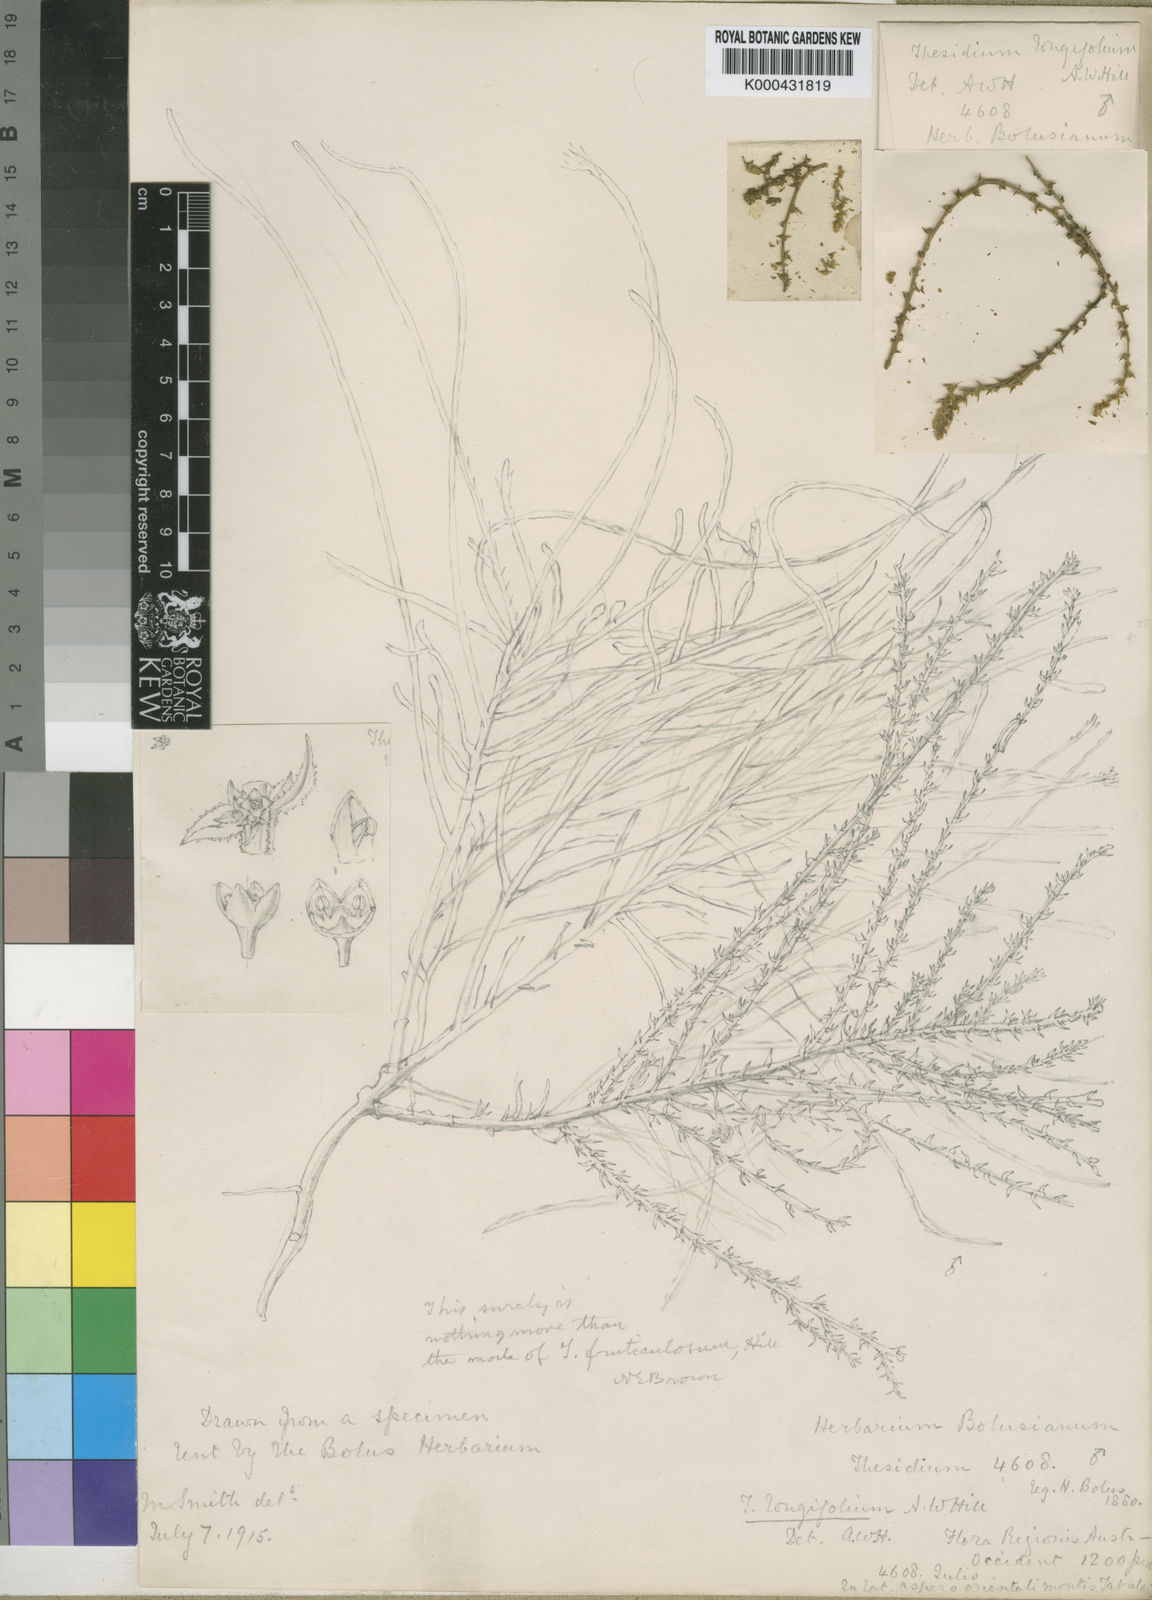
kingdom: Plantae
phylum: Tracheophyta
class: Magnoliopsida
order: Santalales
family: Thesiaceae
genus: Thesium
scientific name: Thesium longicaule
